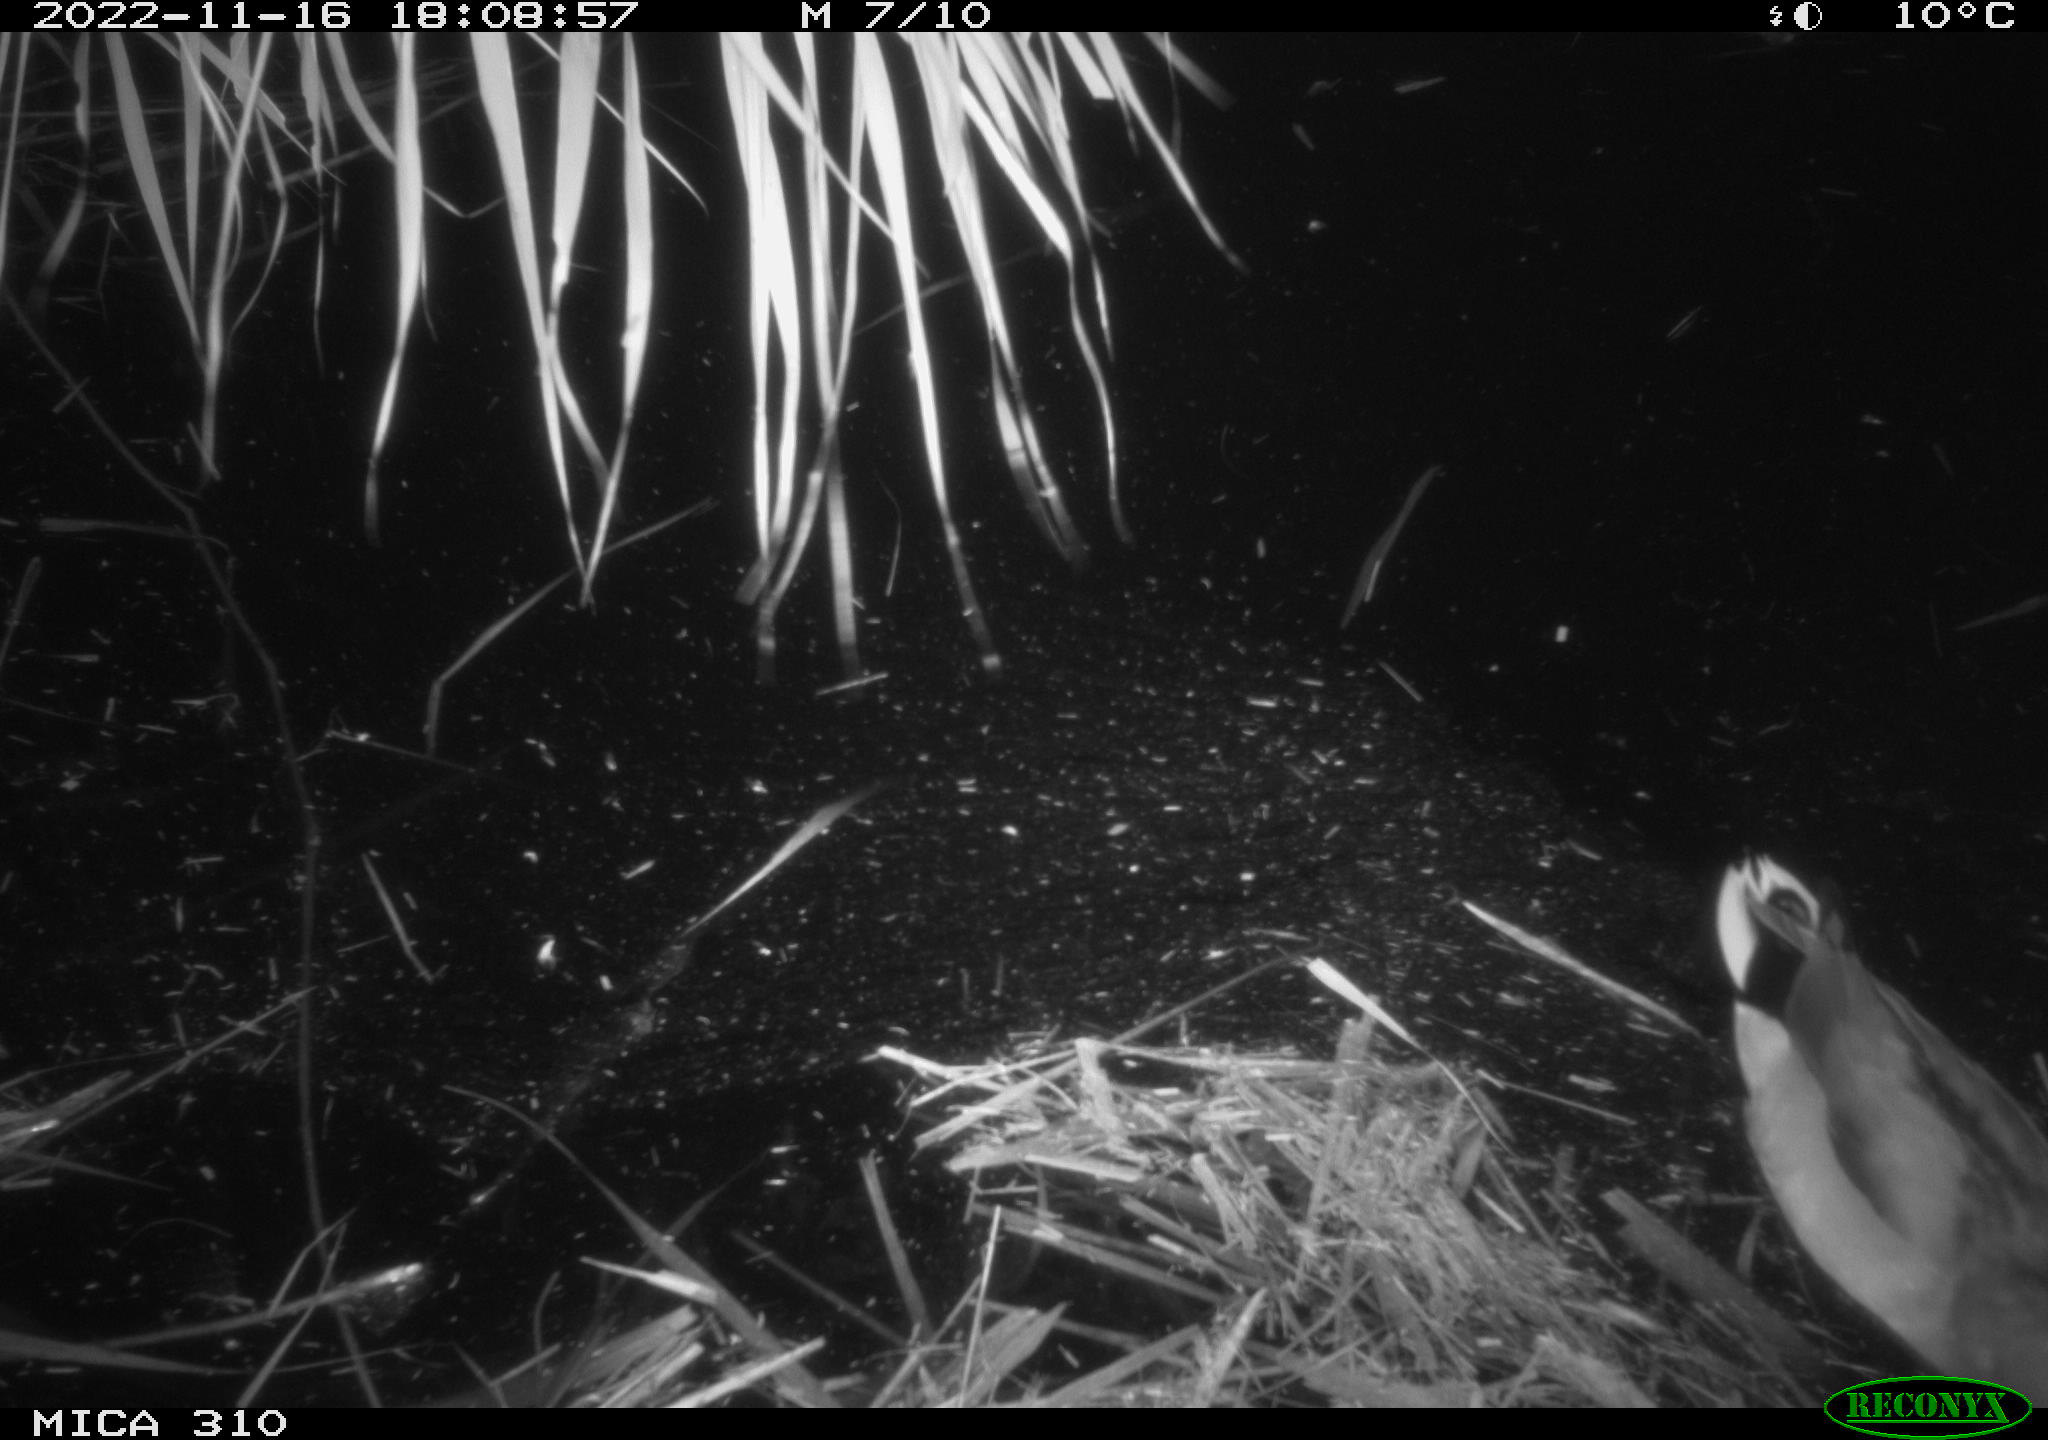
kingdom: Animalia
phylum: Chordata
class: Aves
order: Anseriformes
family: Anatidae
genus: Anas
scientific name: Anas
